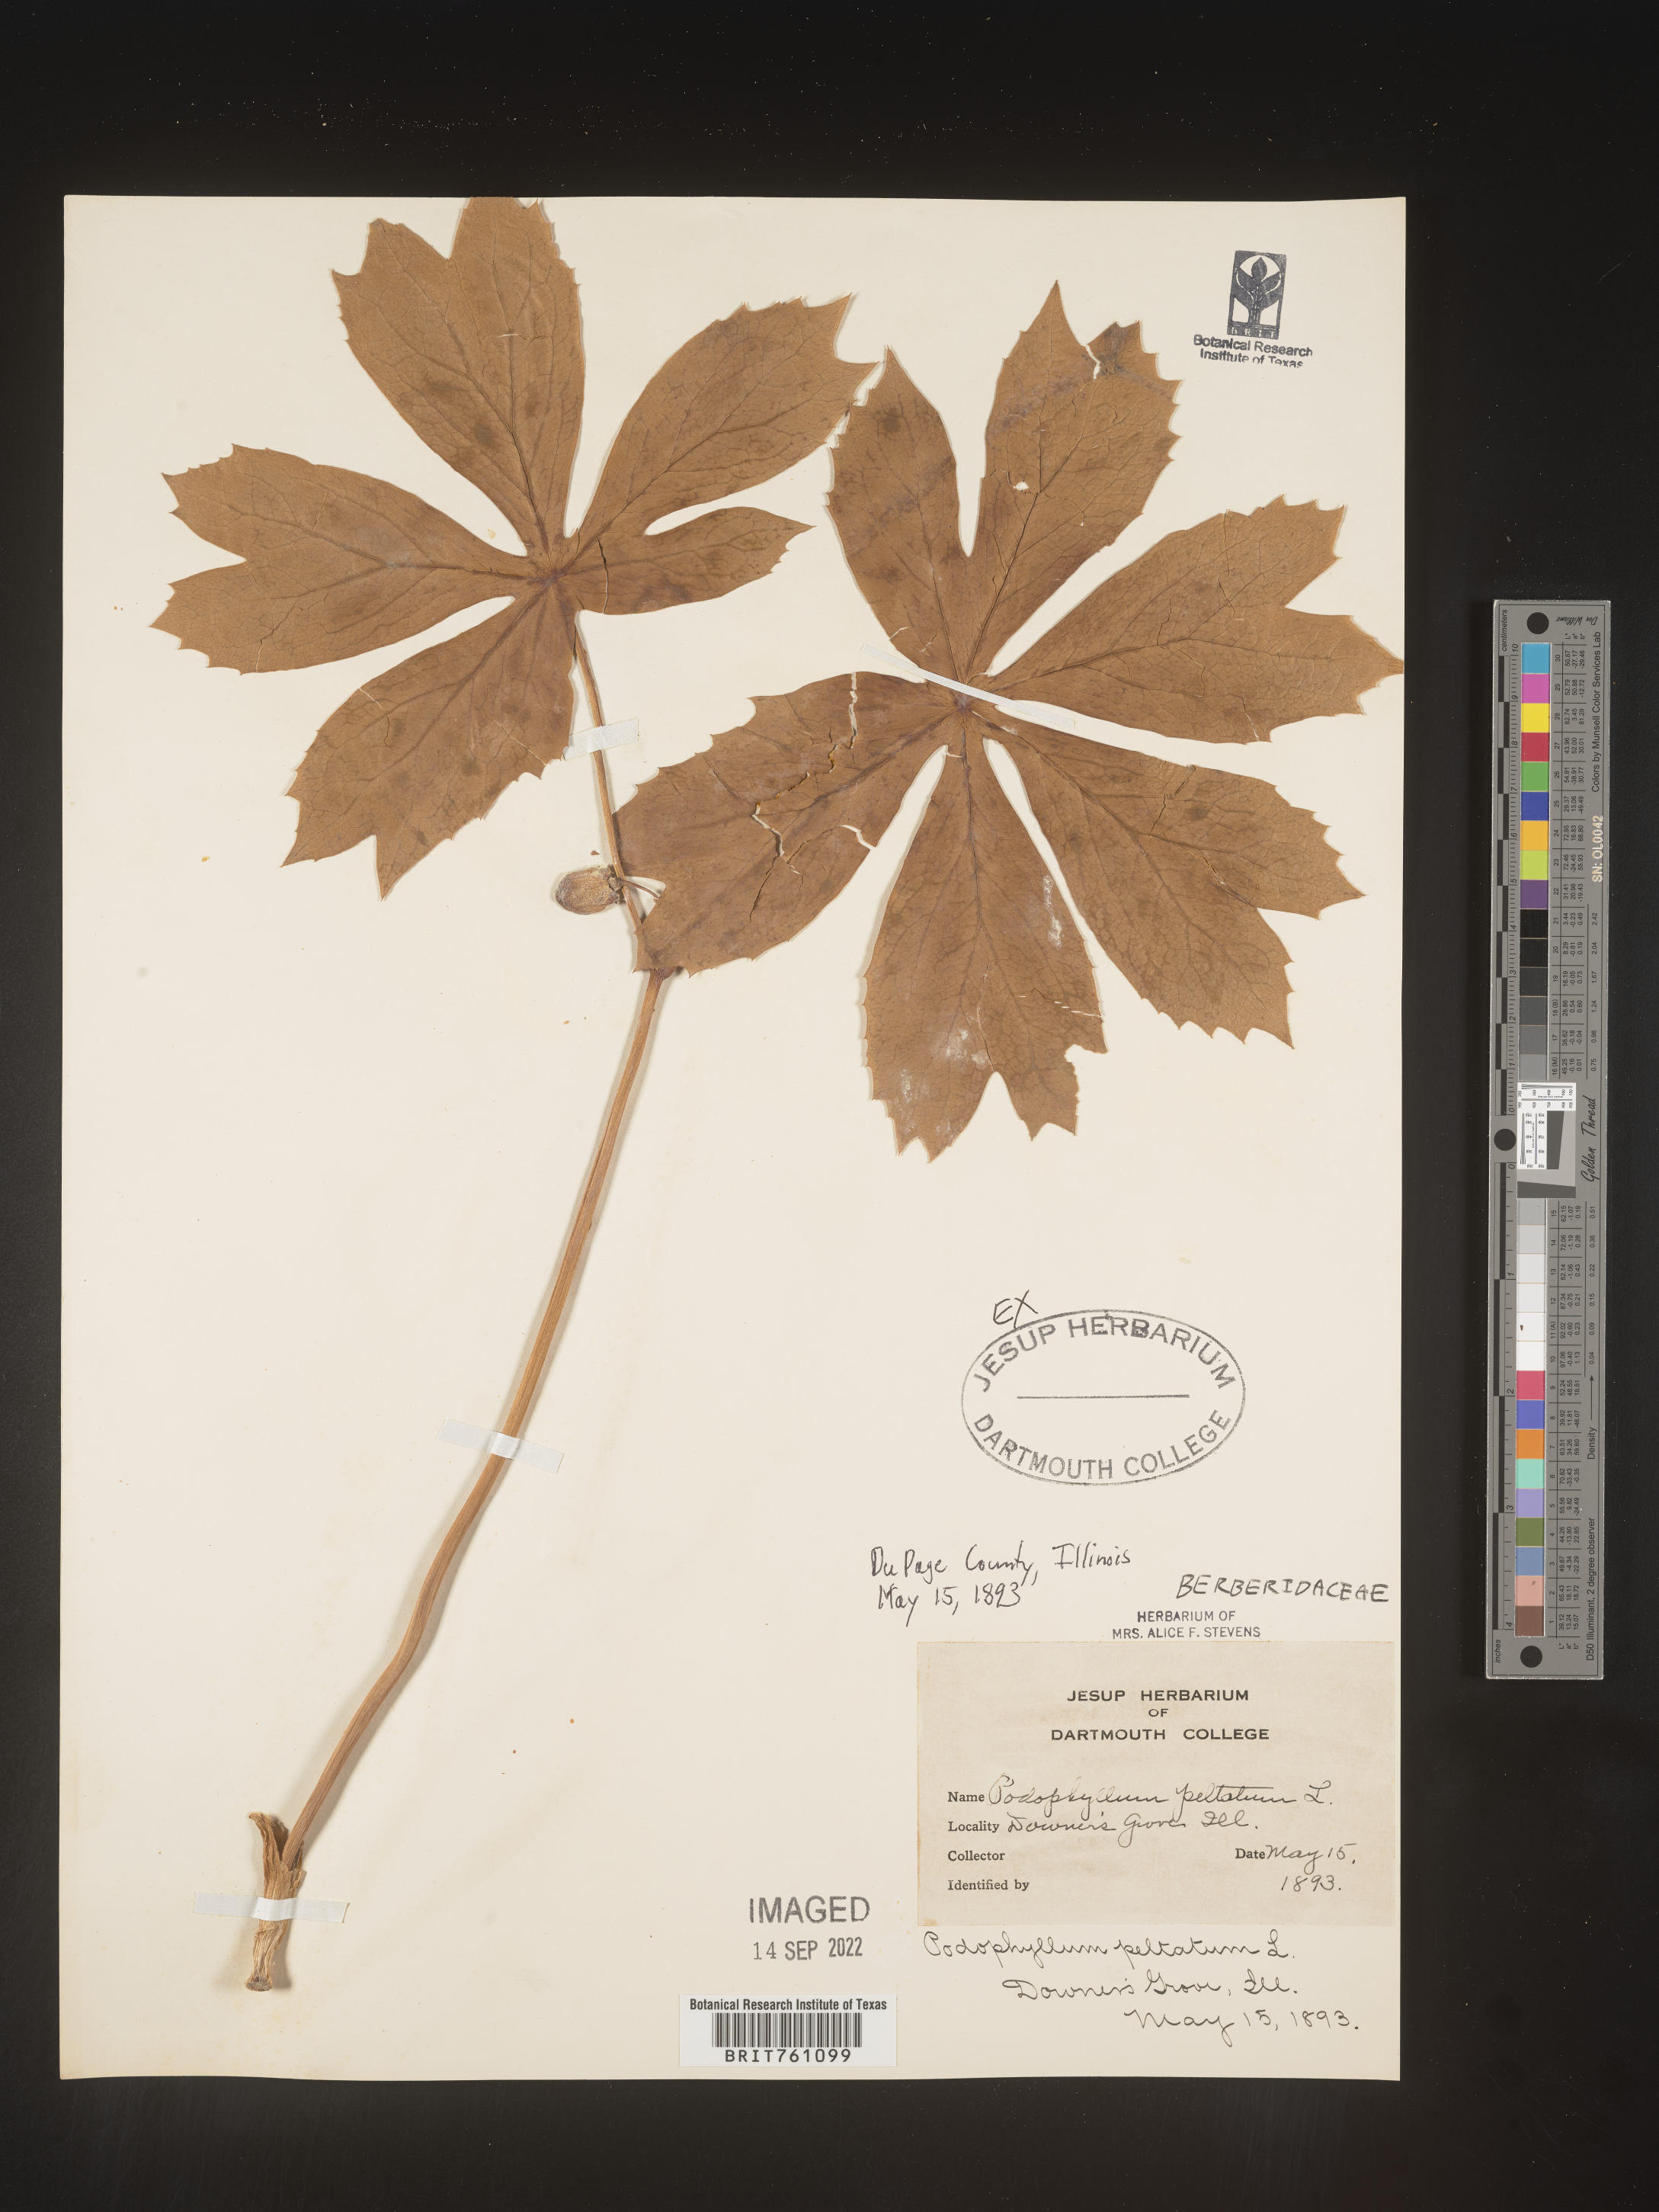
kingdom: Plantae
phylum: Tracheophyta
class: Magnoliopsida
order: Ranunculales
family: Berberidaceae
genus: Podophyllum
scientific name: Podophyllum peltatum
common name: Wild mandrake
